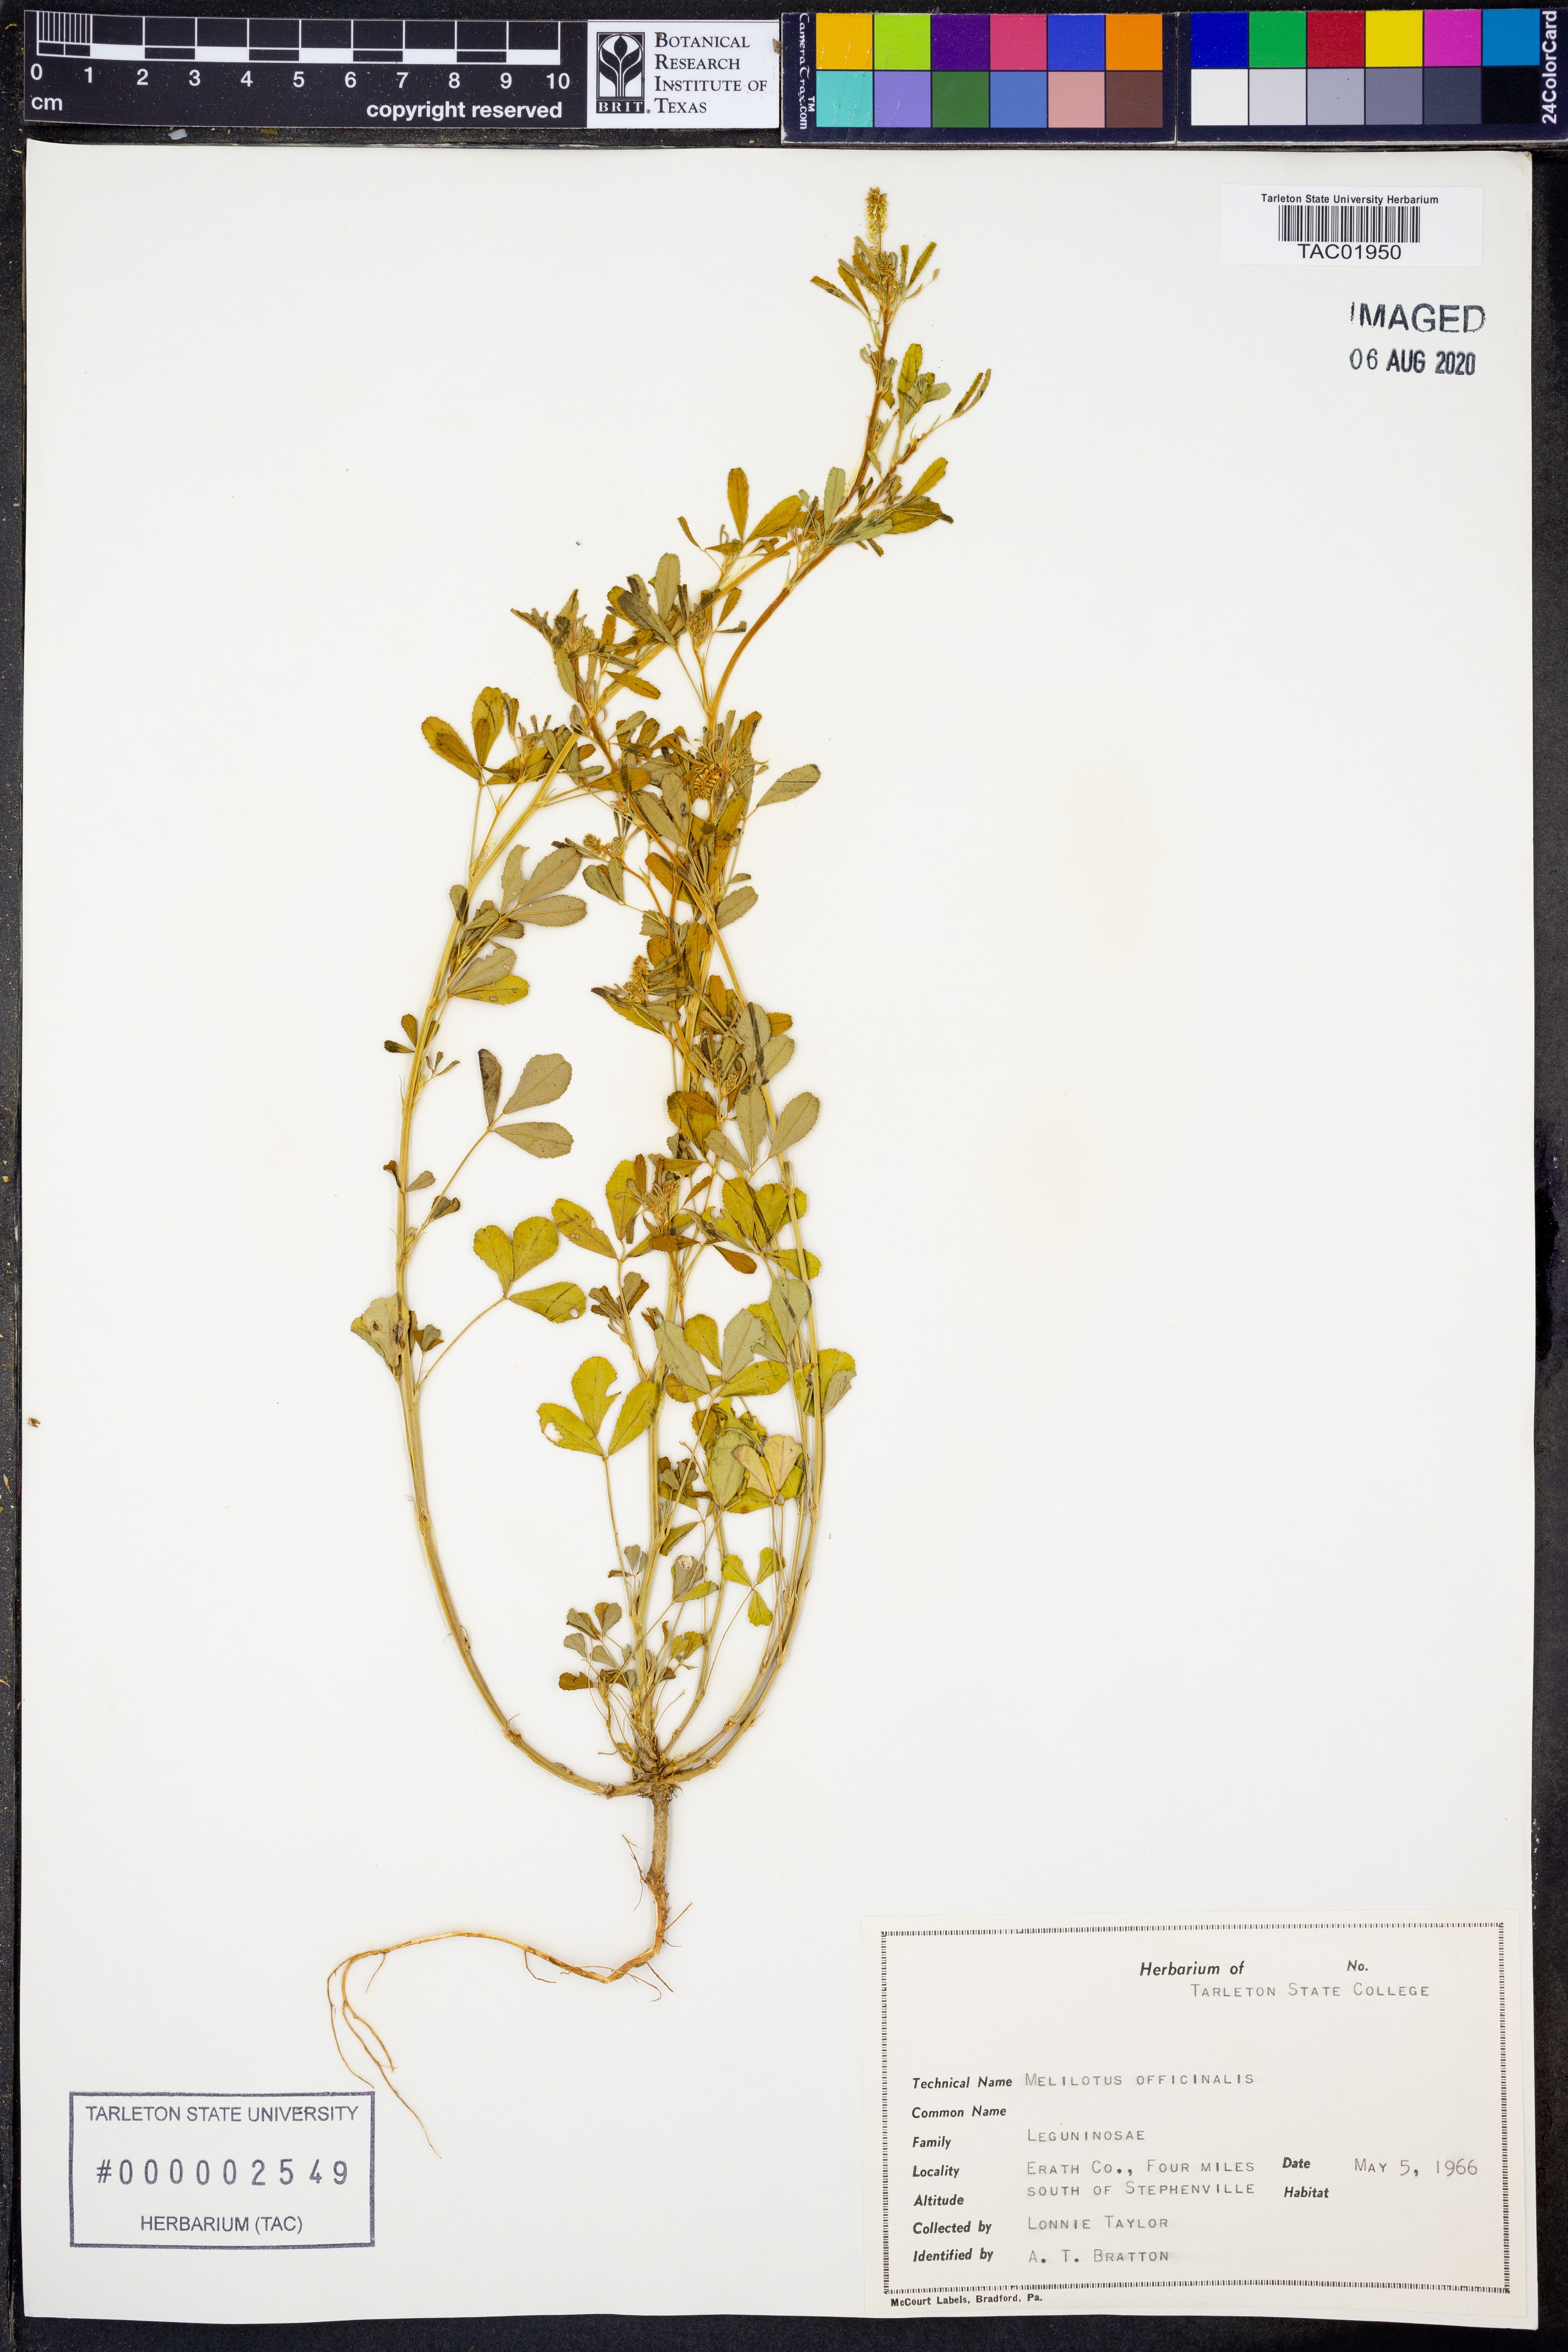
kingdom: Plantae
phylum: Tracheophyta
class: Magnoliopsida
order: Fabales
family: Fabaceae
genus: Melilotus
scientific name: Melilotus officinalis
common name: Sweetclover
